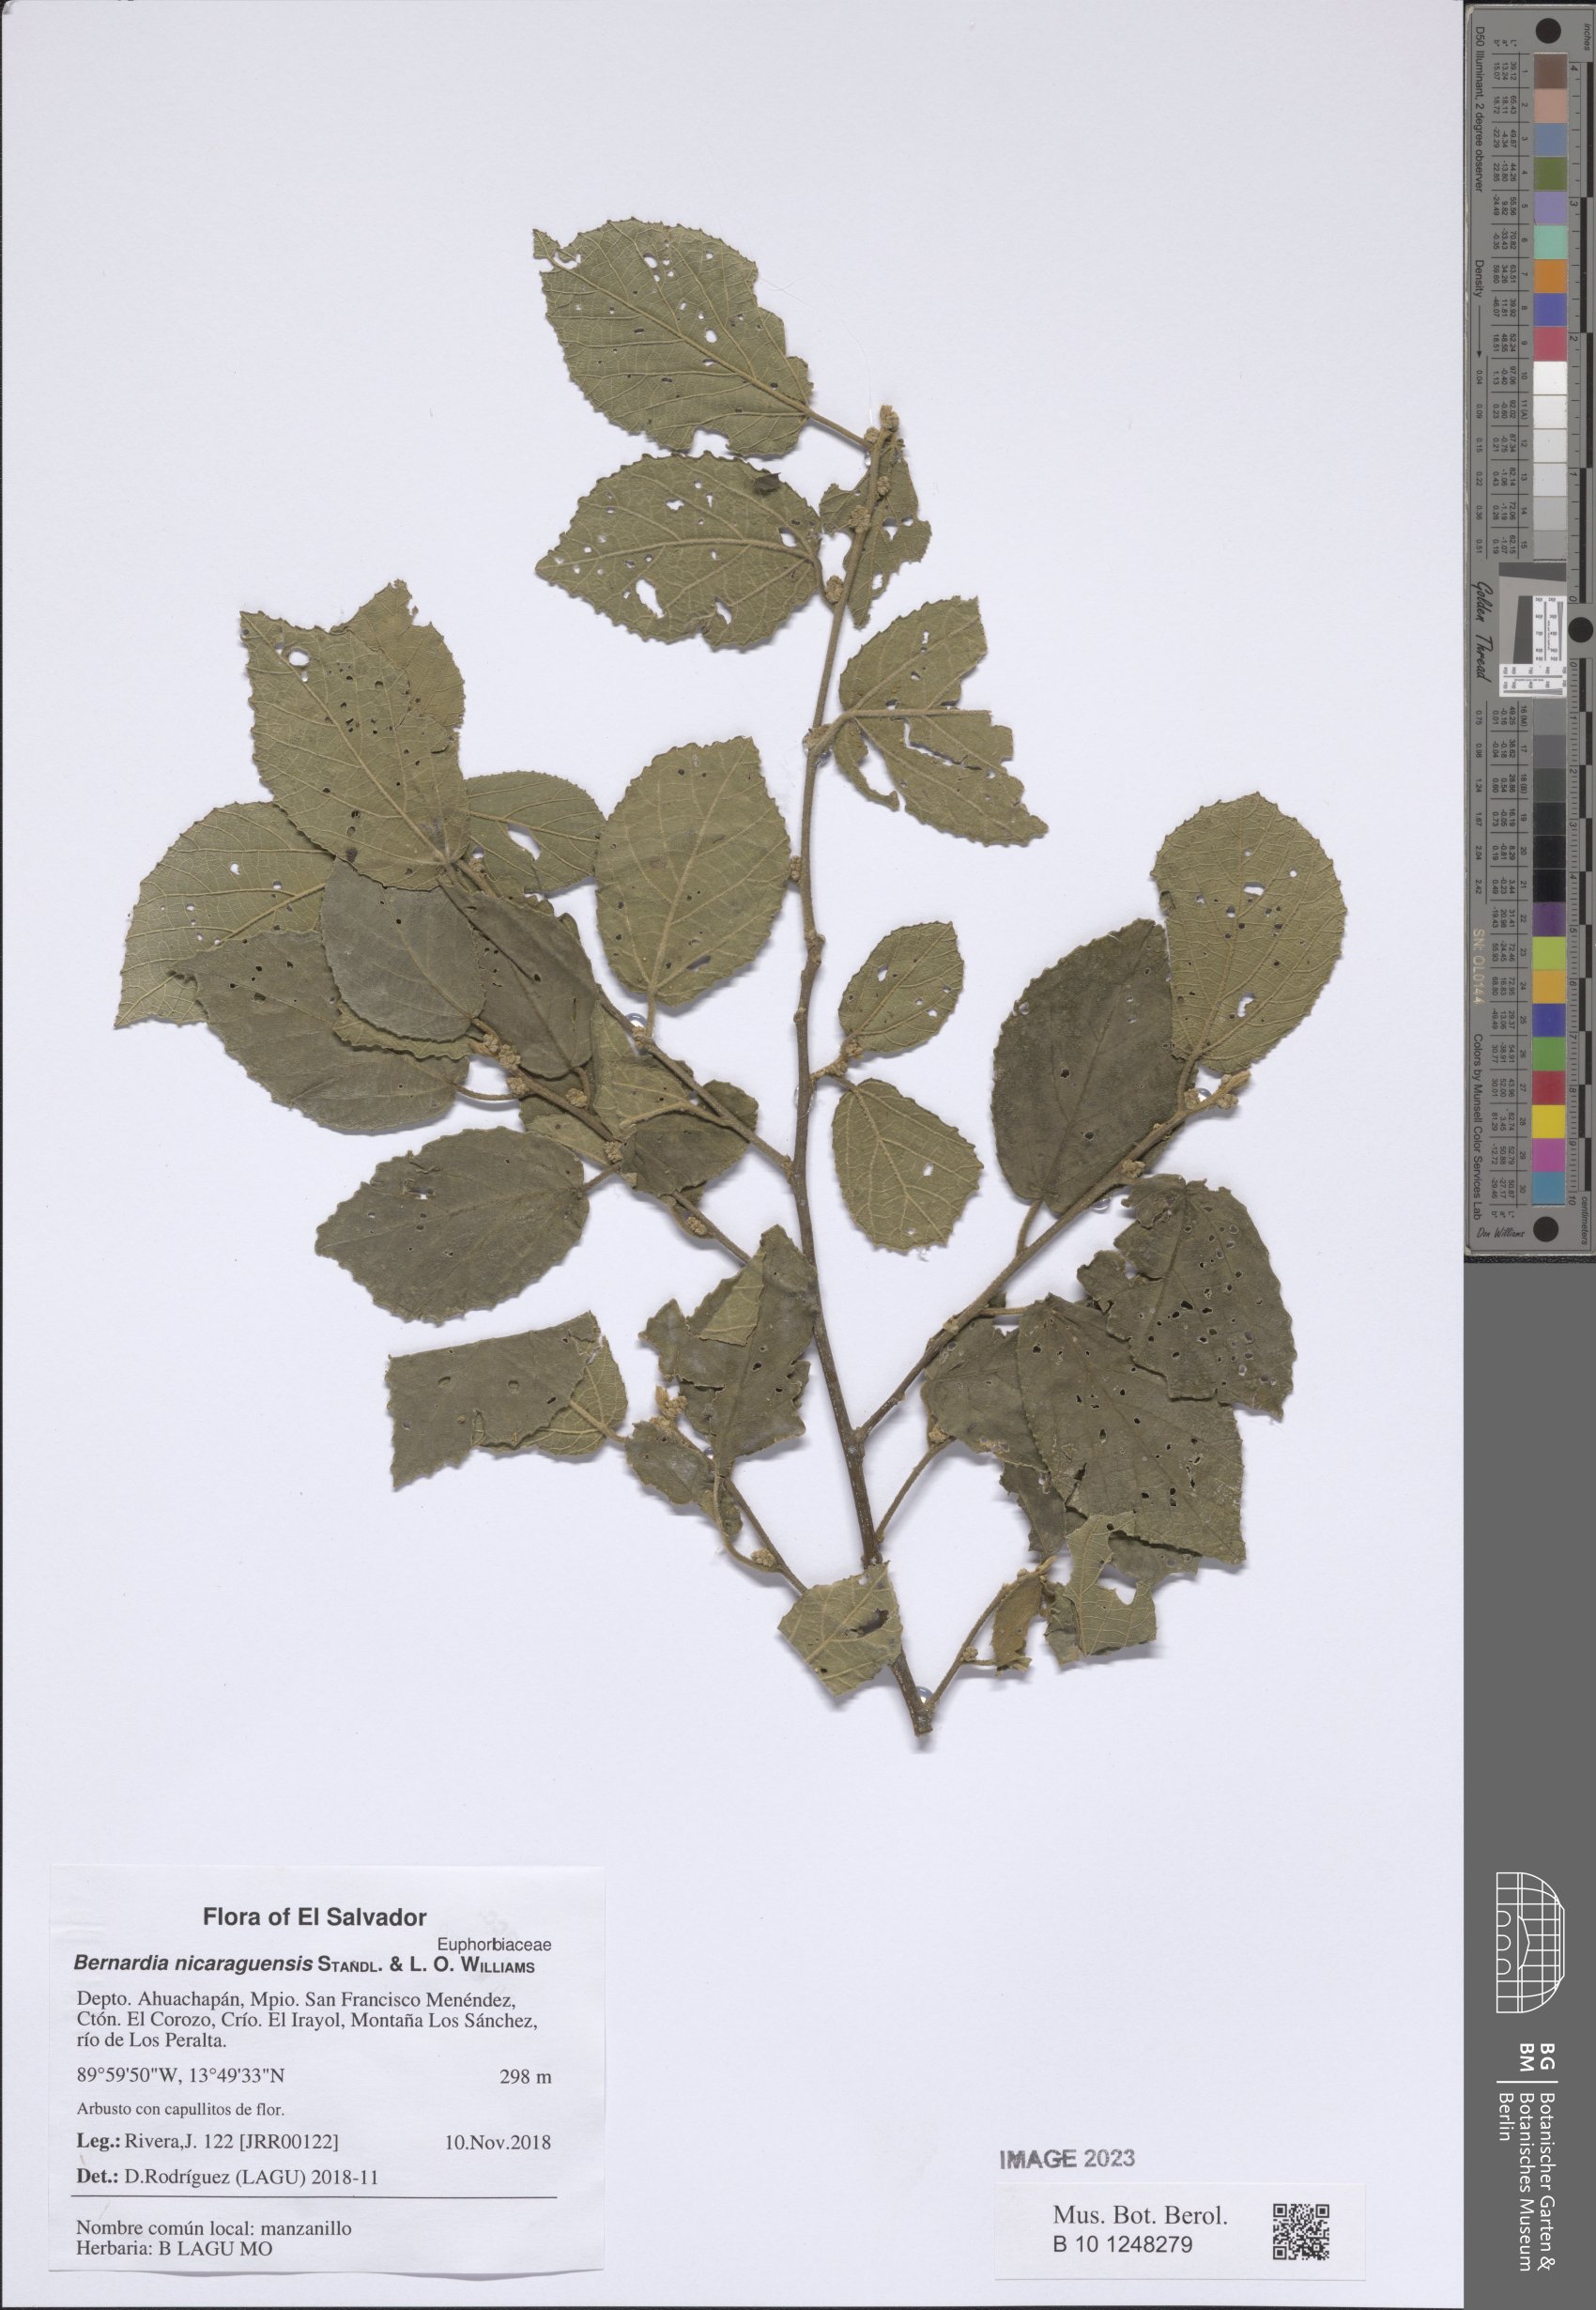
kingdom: Plantae
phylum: Tracheophyta
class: Magnoliopsida
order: Malpighiales
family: Euphorbiaceae
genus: Bernardia
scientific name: Bernardia nicaraguensis
